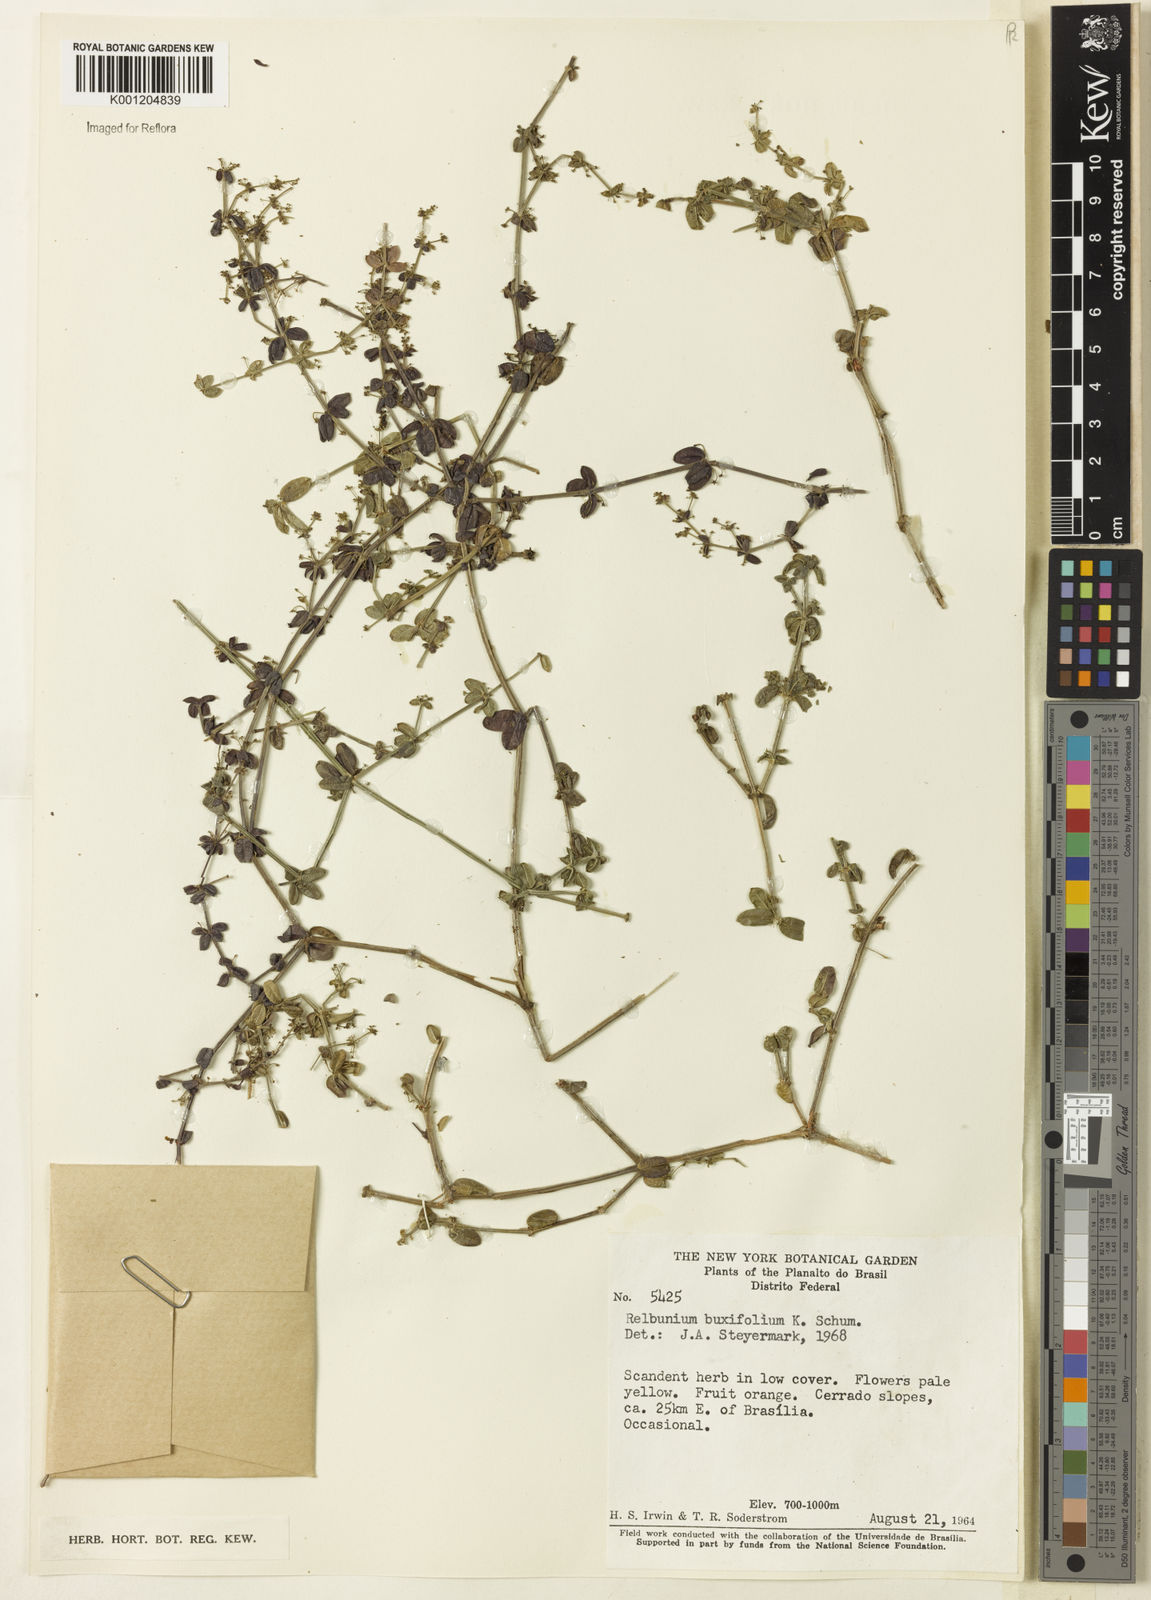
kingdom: Plantae
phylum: Tracheophyta
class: Magnoliopsida
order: Gentianales
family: Rubiaceae
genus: Galium
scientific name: Galium hypocarpium
